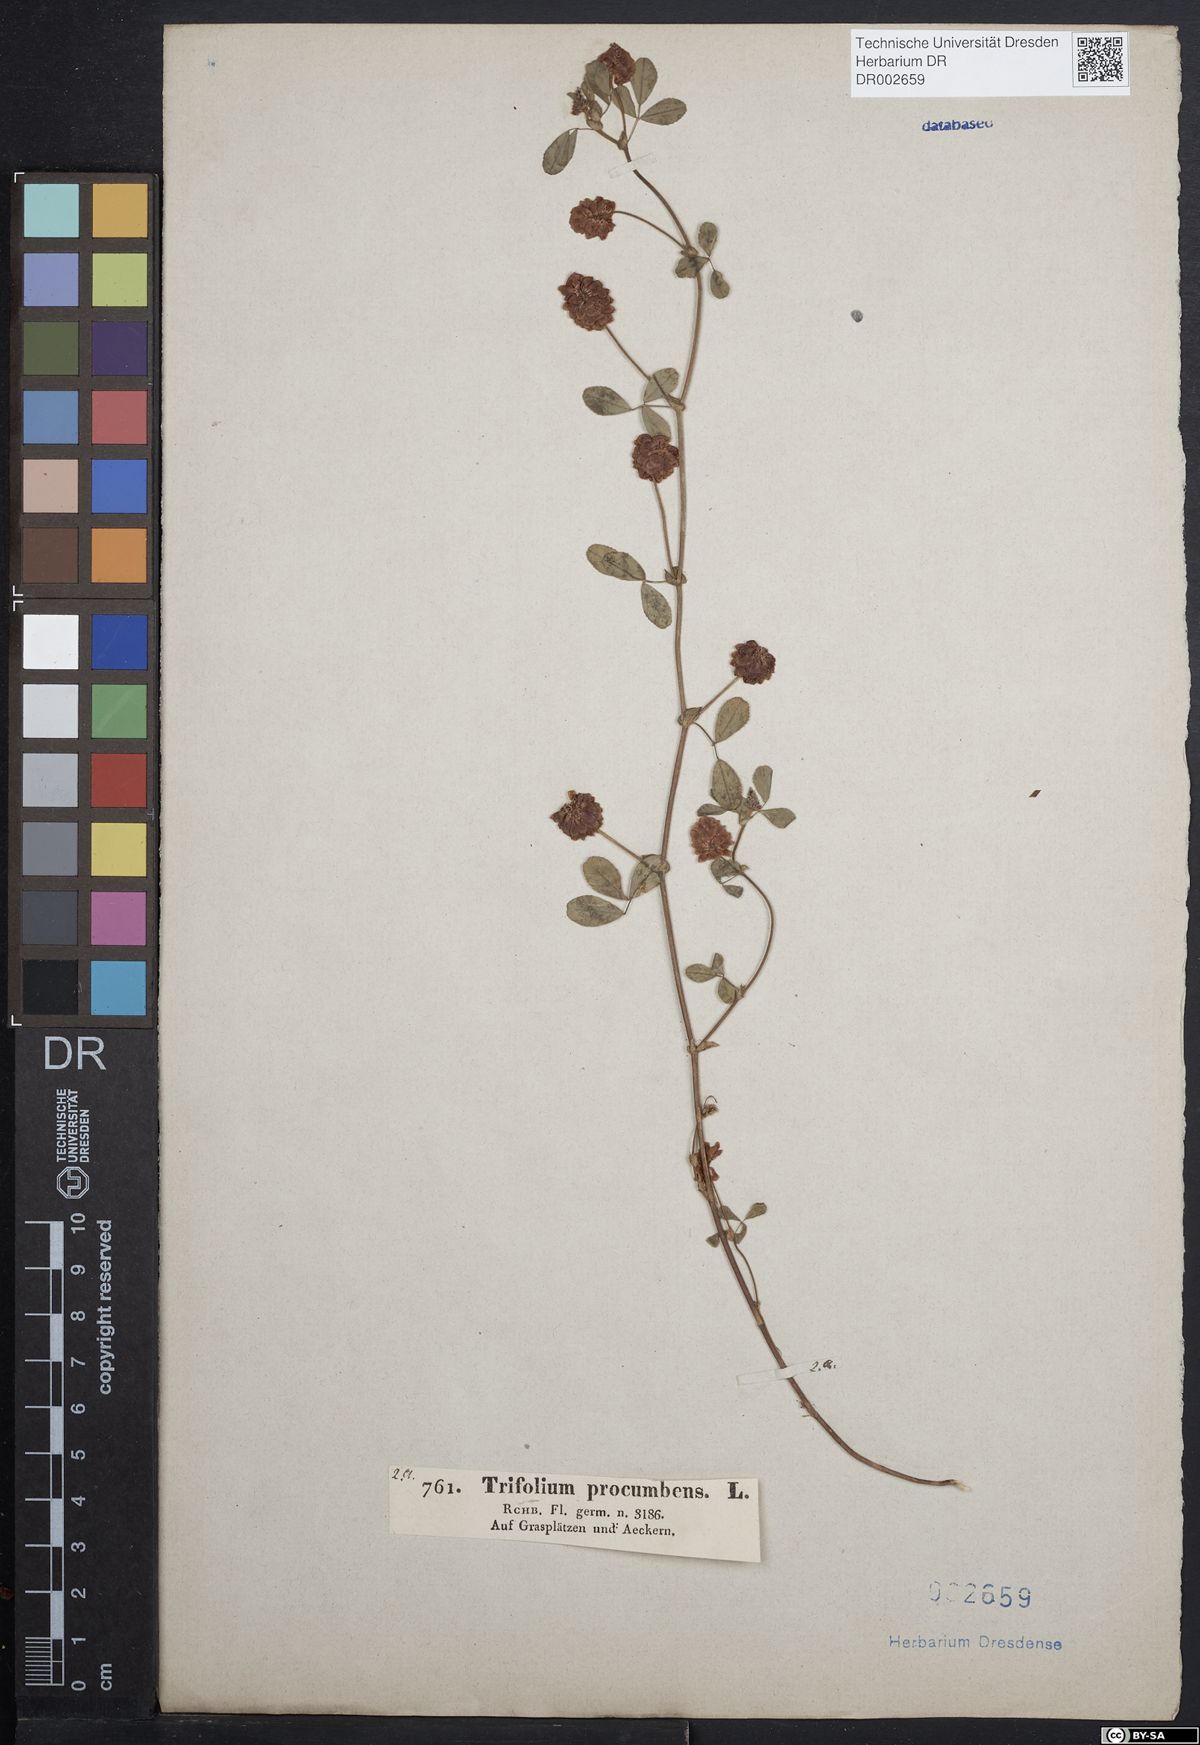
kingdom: Plantae
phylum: Tracheophyta
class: Magnoliopsida
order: Fabales
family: Fabaceae
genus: Trifolium
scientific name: Trifolium campestre
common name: Field clover
